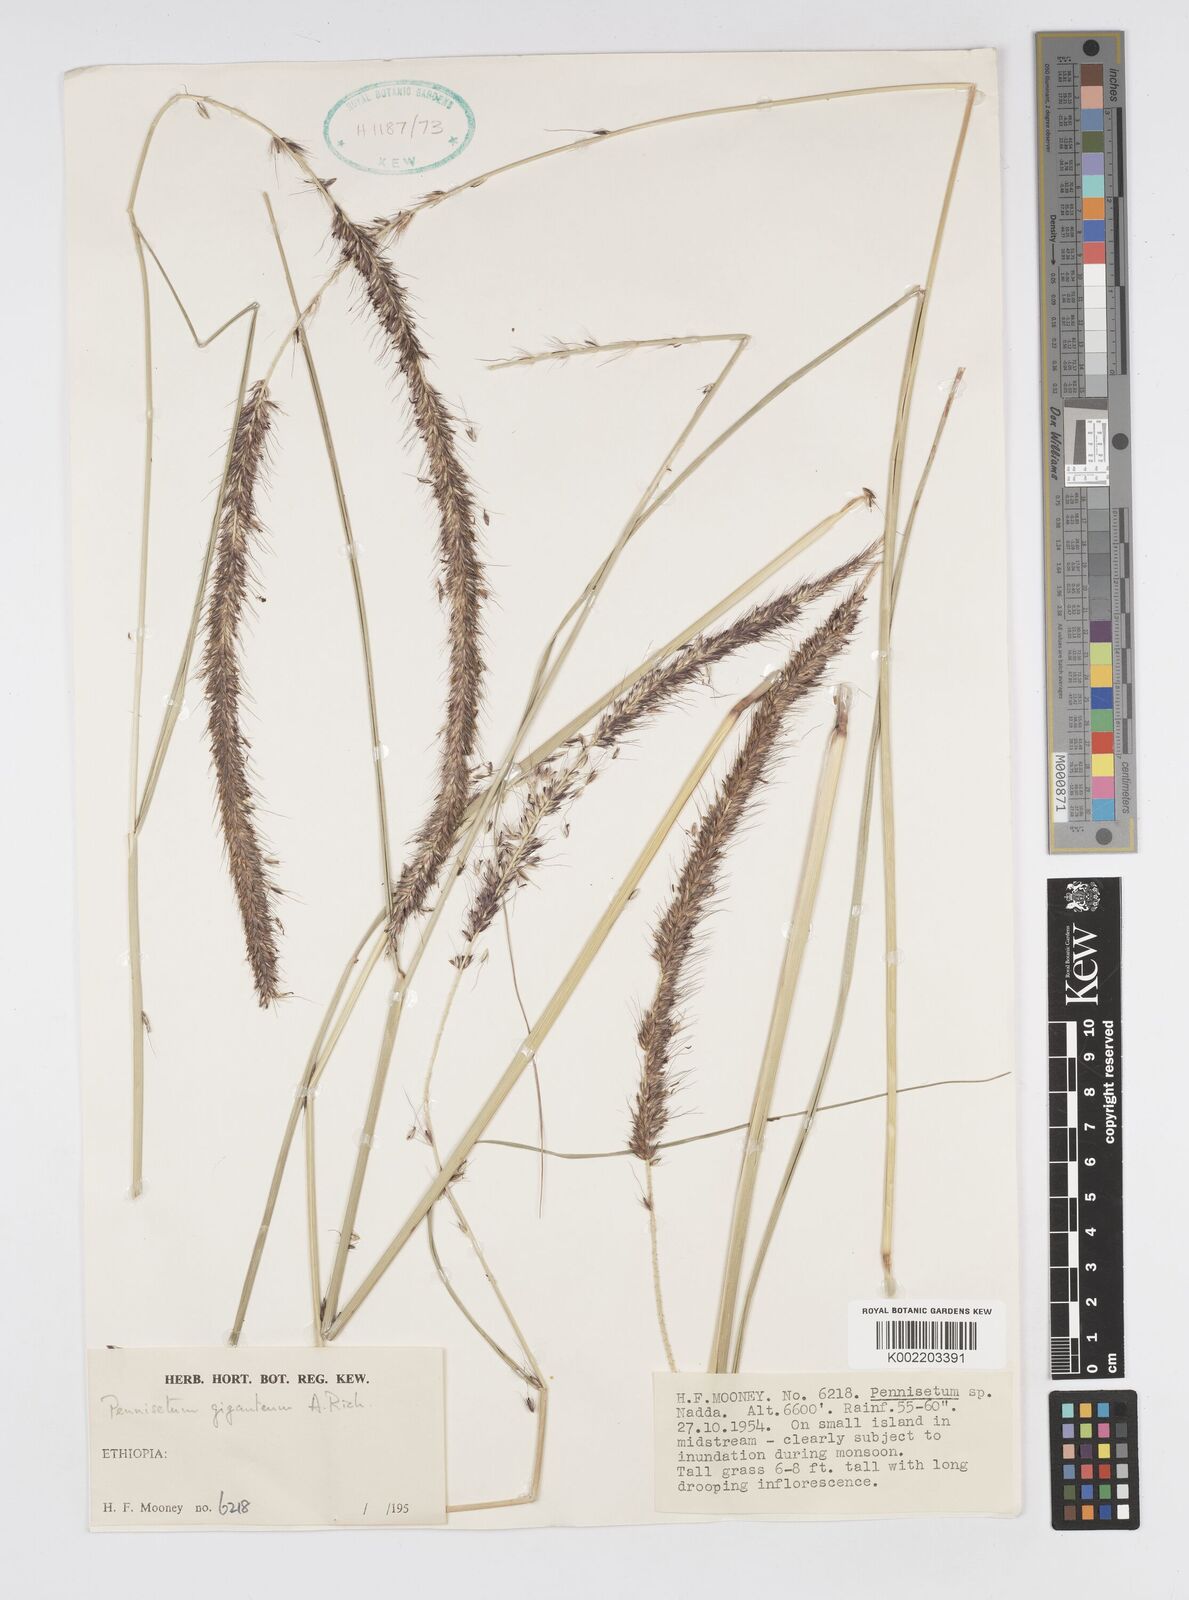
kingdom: Plantae
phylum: Tracheophyta
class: Liliopsida
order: Poales
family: Poaceae
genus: Cenchrus
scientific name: Cenchrus caudatus
